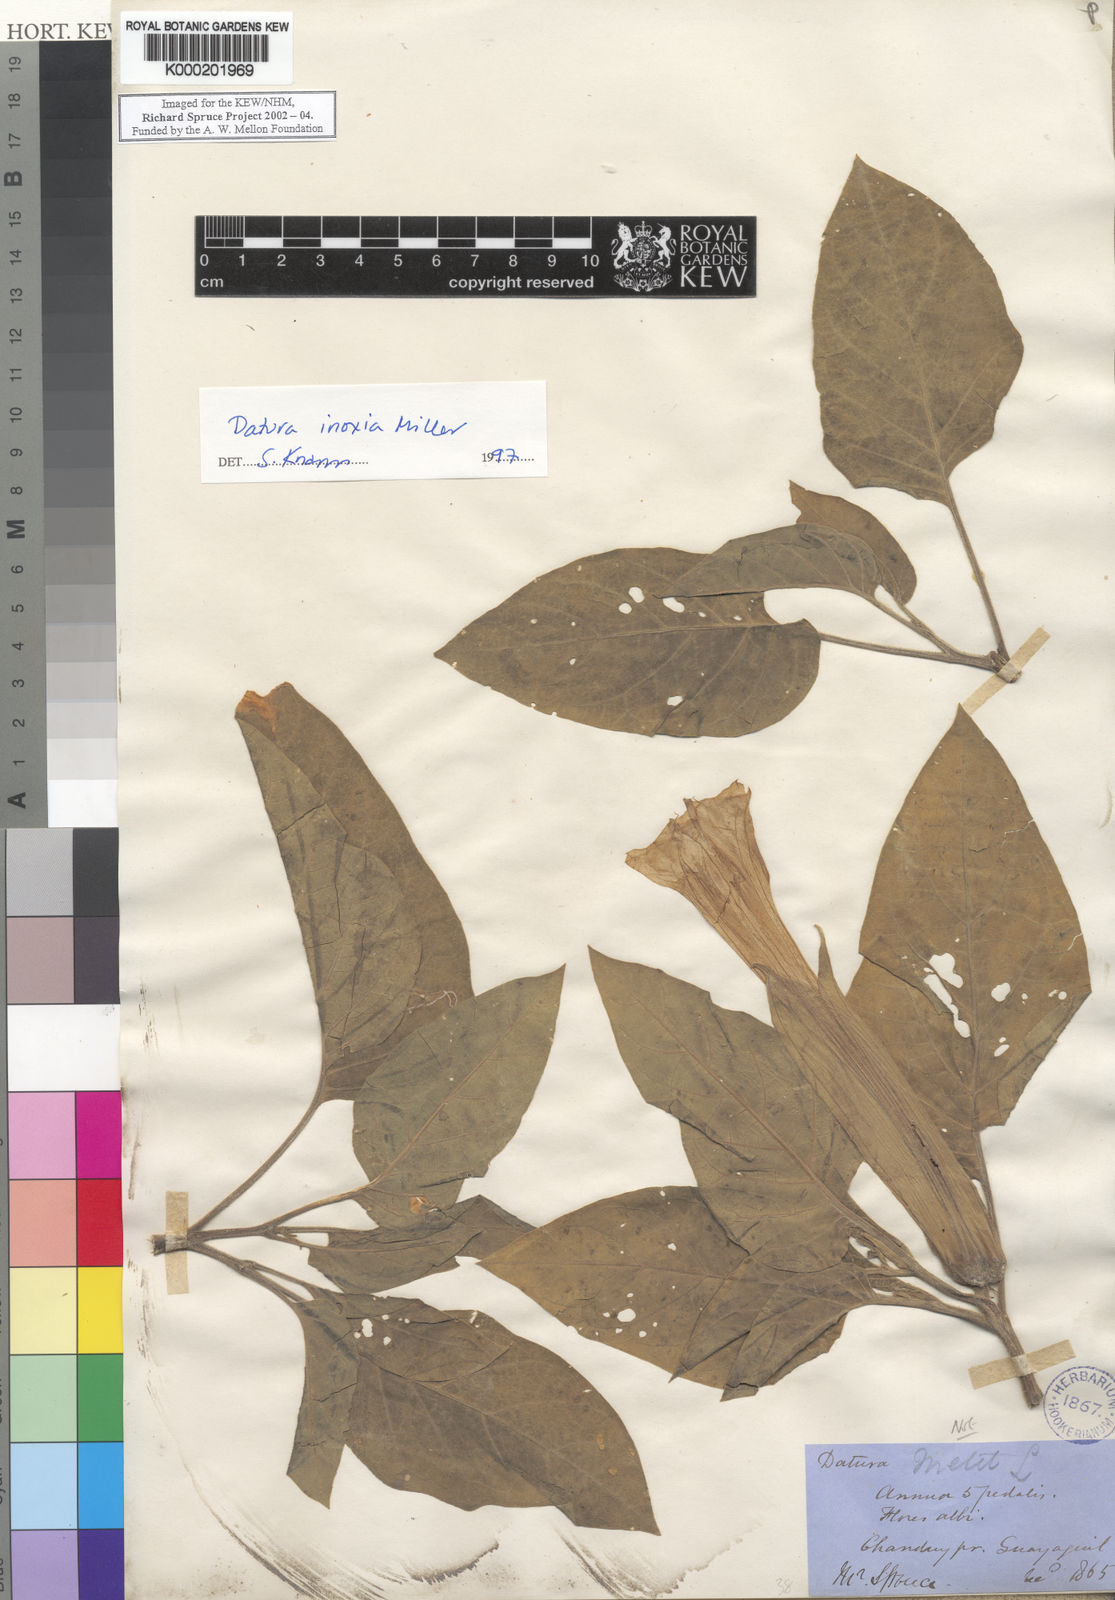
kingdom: Plantae
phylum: Tracheophyta
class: Magnoliopsida
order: Solanales
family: Solanaceae
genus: Datura
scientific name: Datura
